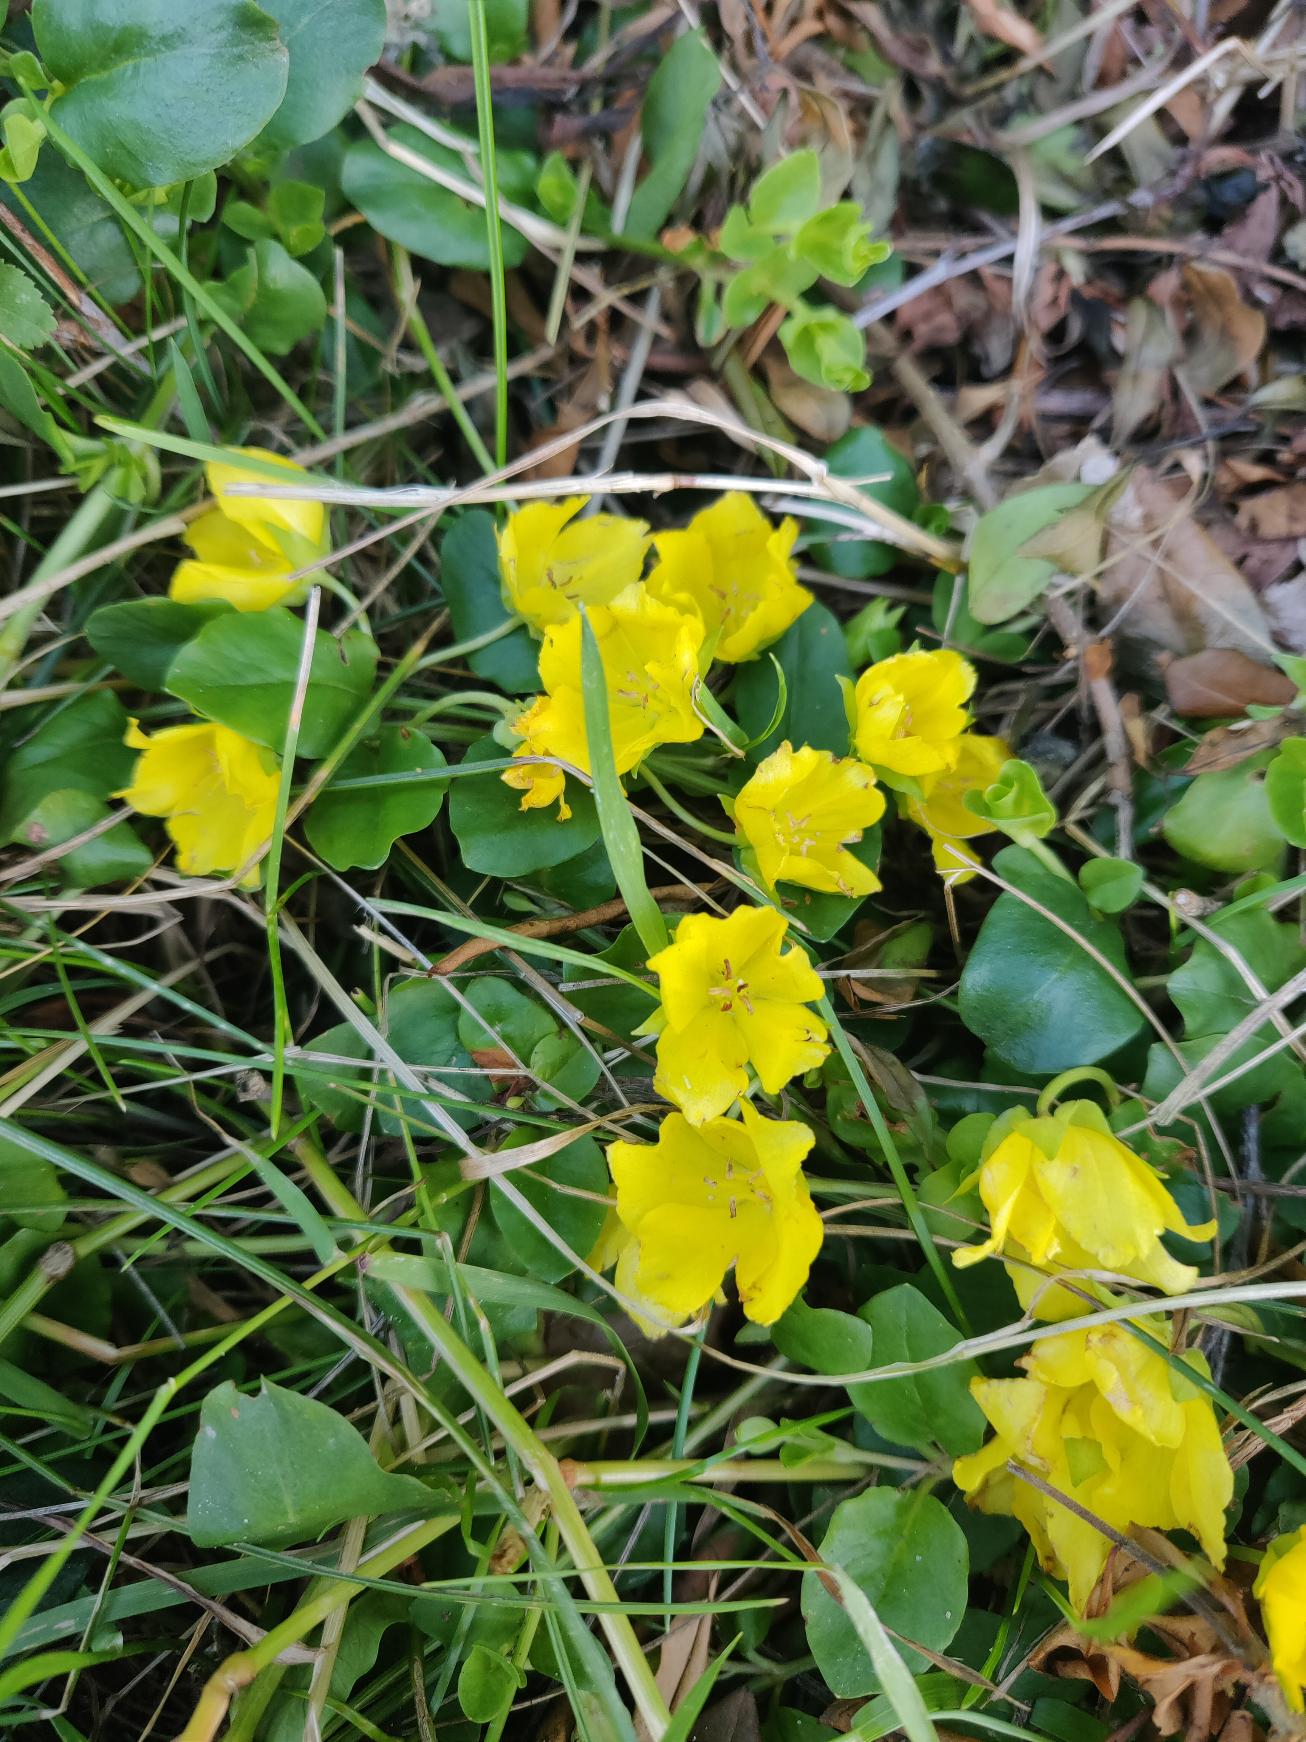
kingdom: Plantae
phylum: Tracheophyta
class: Magnoliopsida
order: Ericales
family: Primulaceae
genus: Lysimachia
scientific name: Lysimachia nummularia
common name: Pengebladet fredløs
